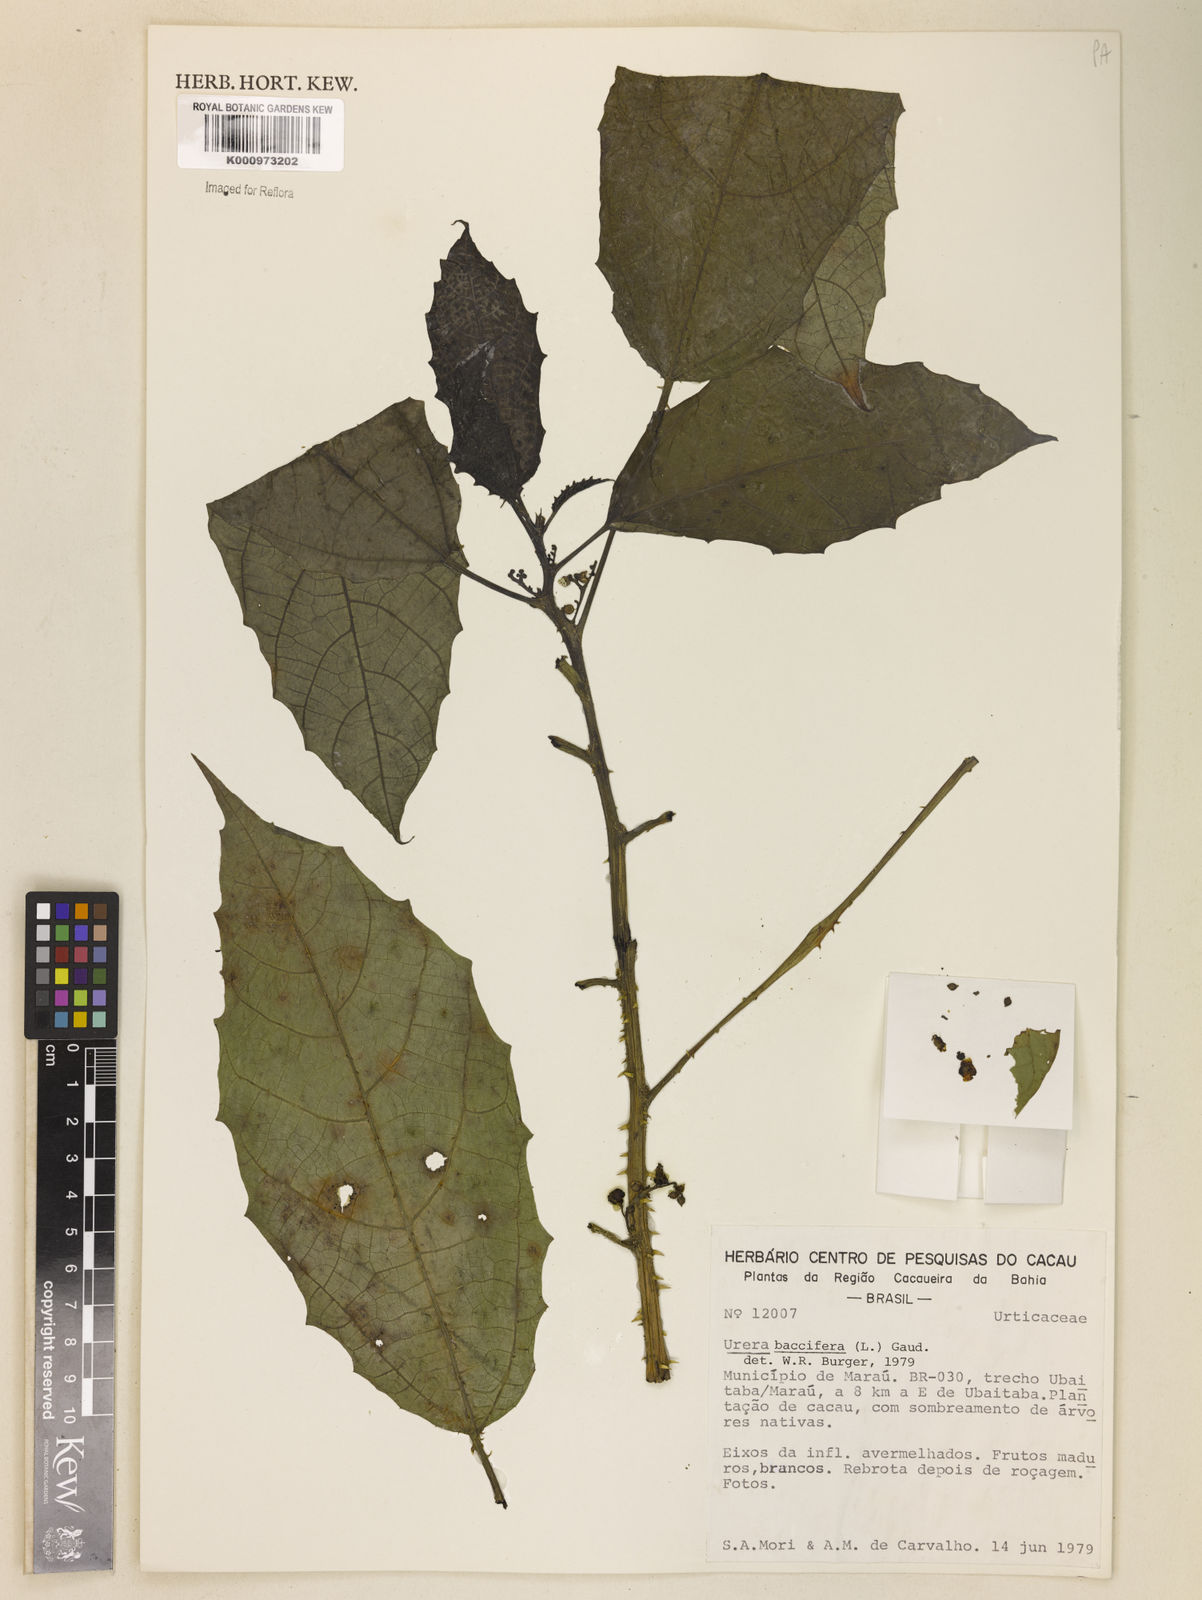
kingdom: Plantae
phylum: Tracheophyta
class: Magnoliopsida
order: Rosales
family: Urticaceae
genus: Urera
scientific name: Urera baccifera
